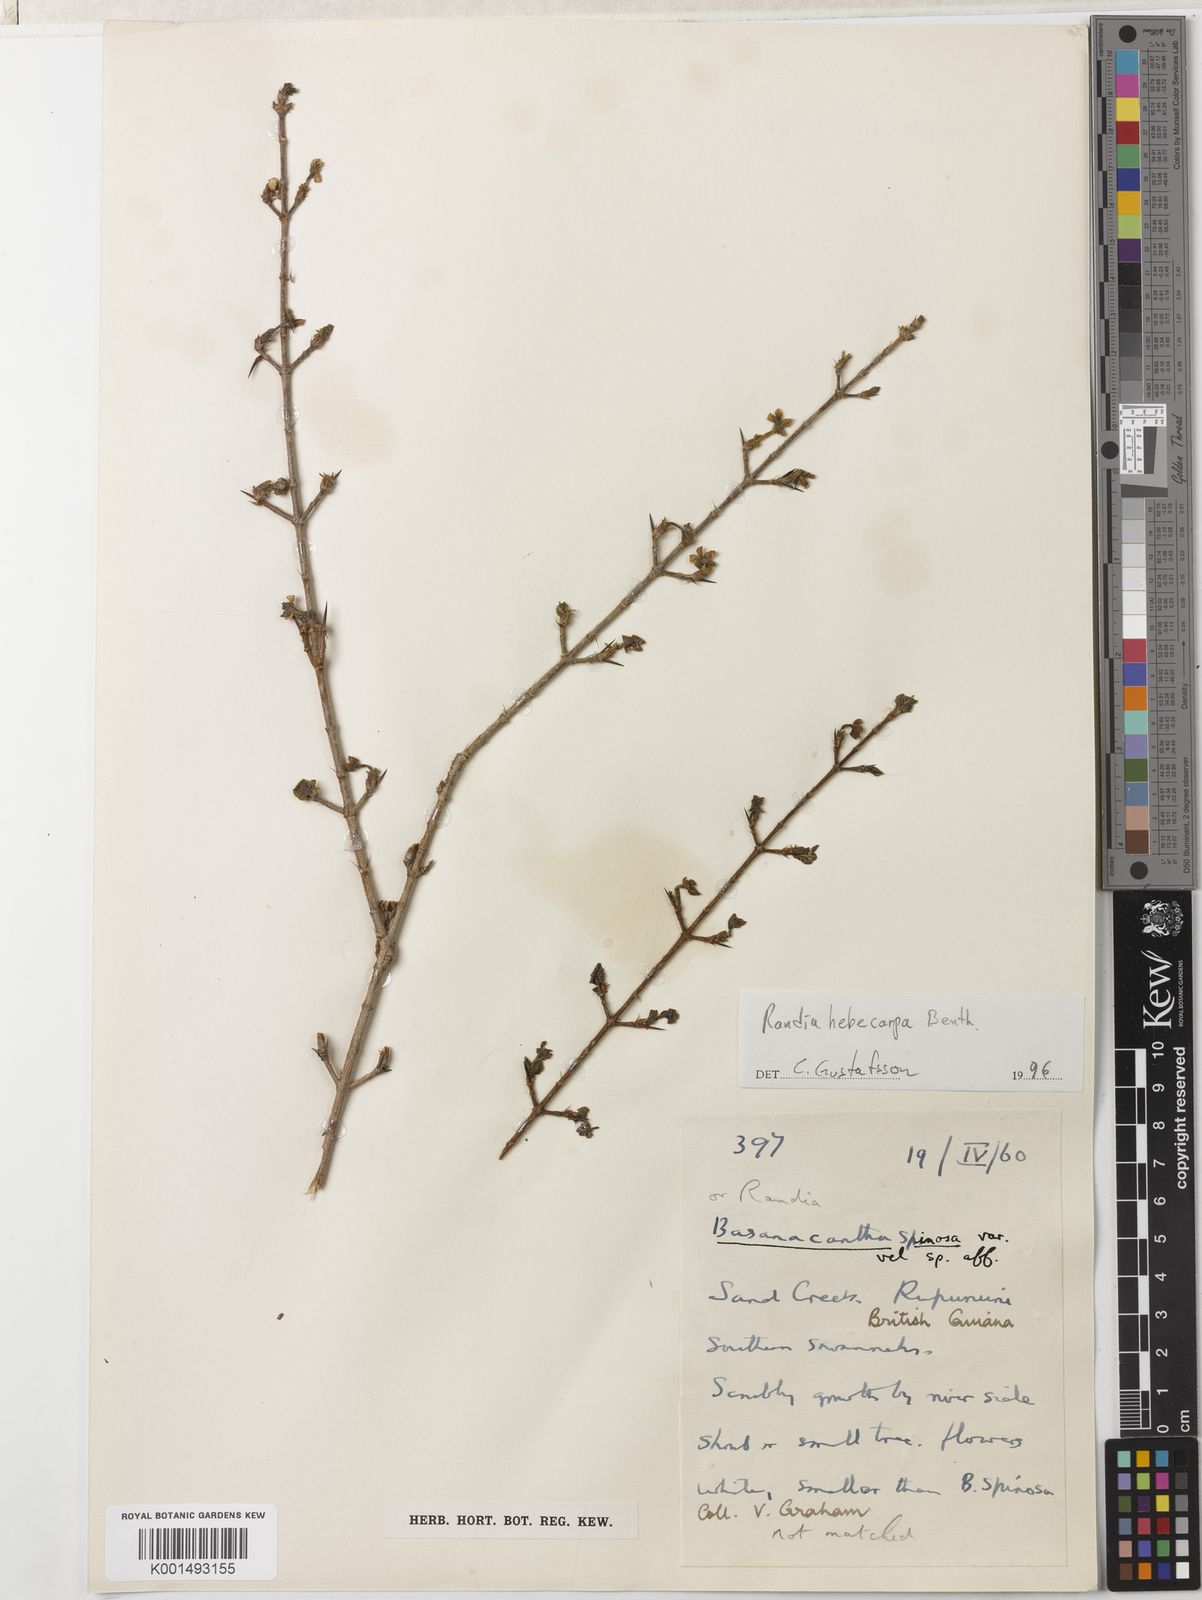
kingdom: Plantae
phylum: Tracheophyta
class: Magnoliopsida
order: Gentianales
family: Rubiaceae
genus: Randia
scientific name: Randia hebecarpa
